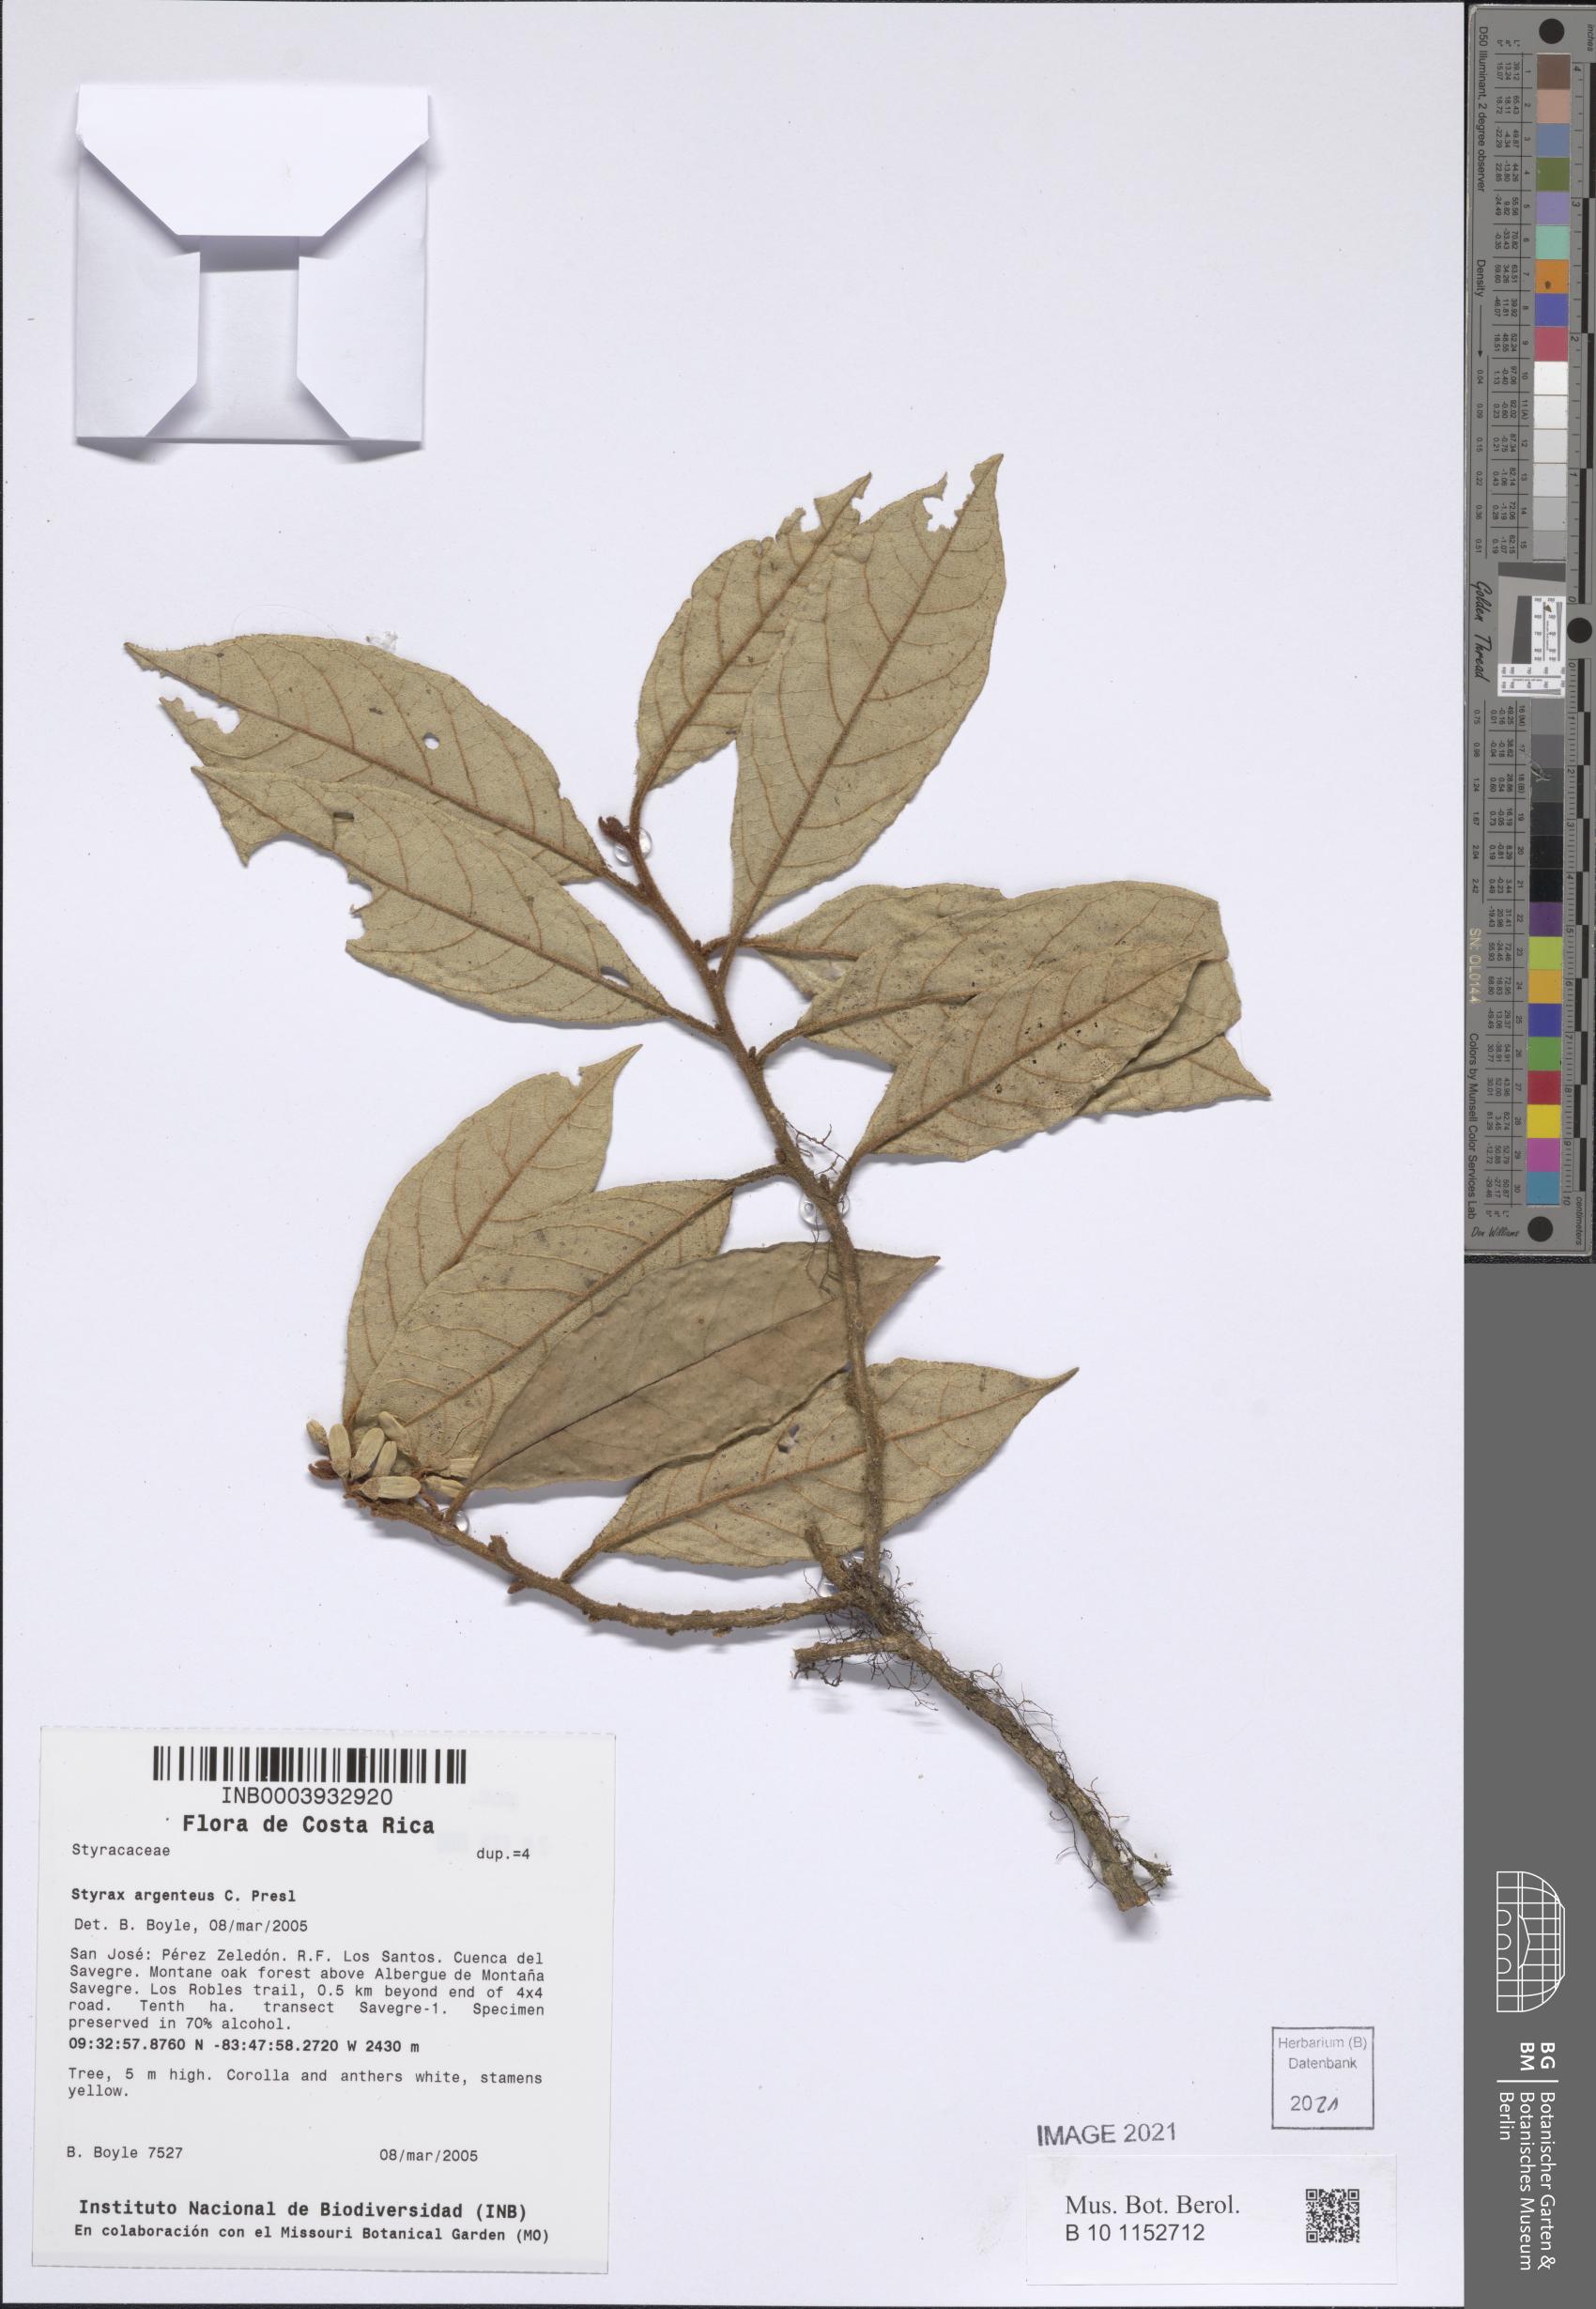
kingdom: Plantae
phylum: Tracheophyta
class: Magnoliopsida
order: Ericales
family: Styracaceae
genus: Styrax
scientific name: Styrax warscewiczii
